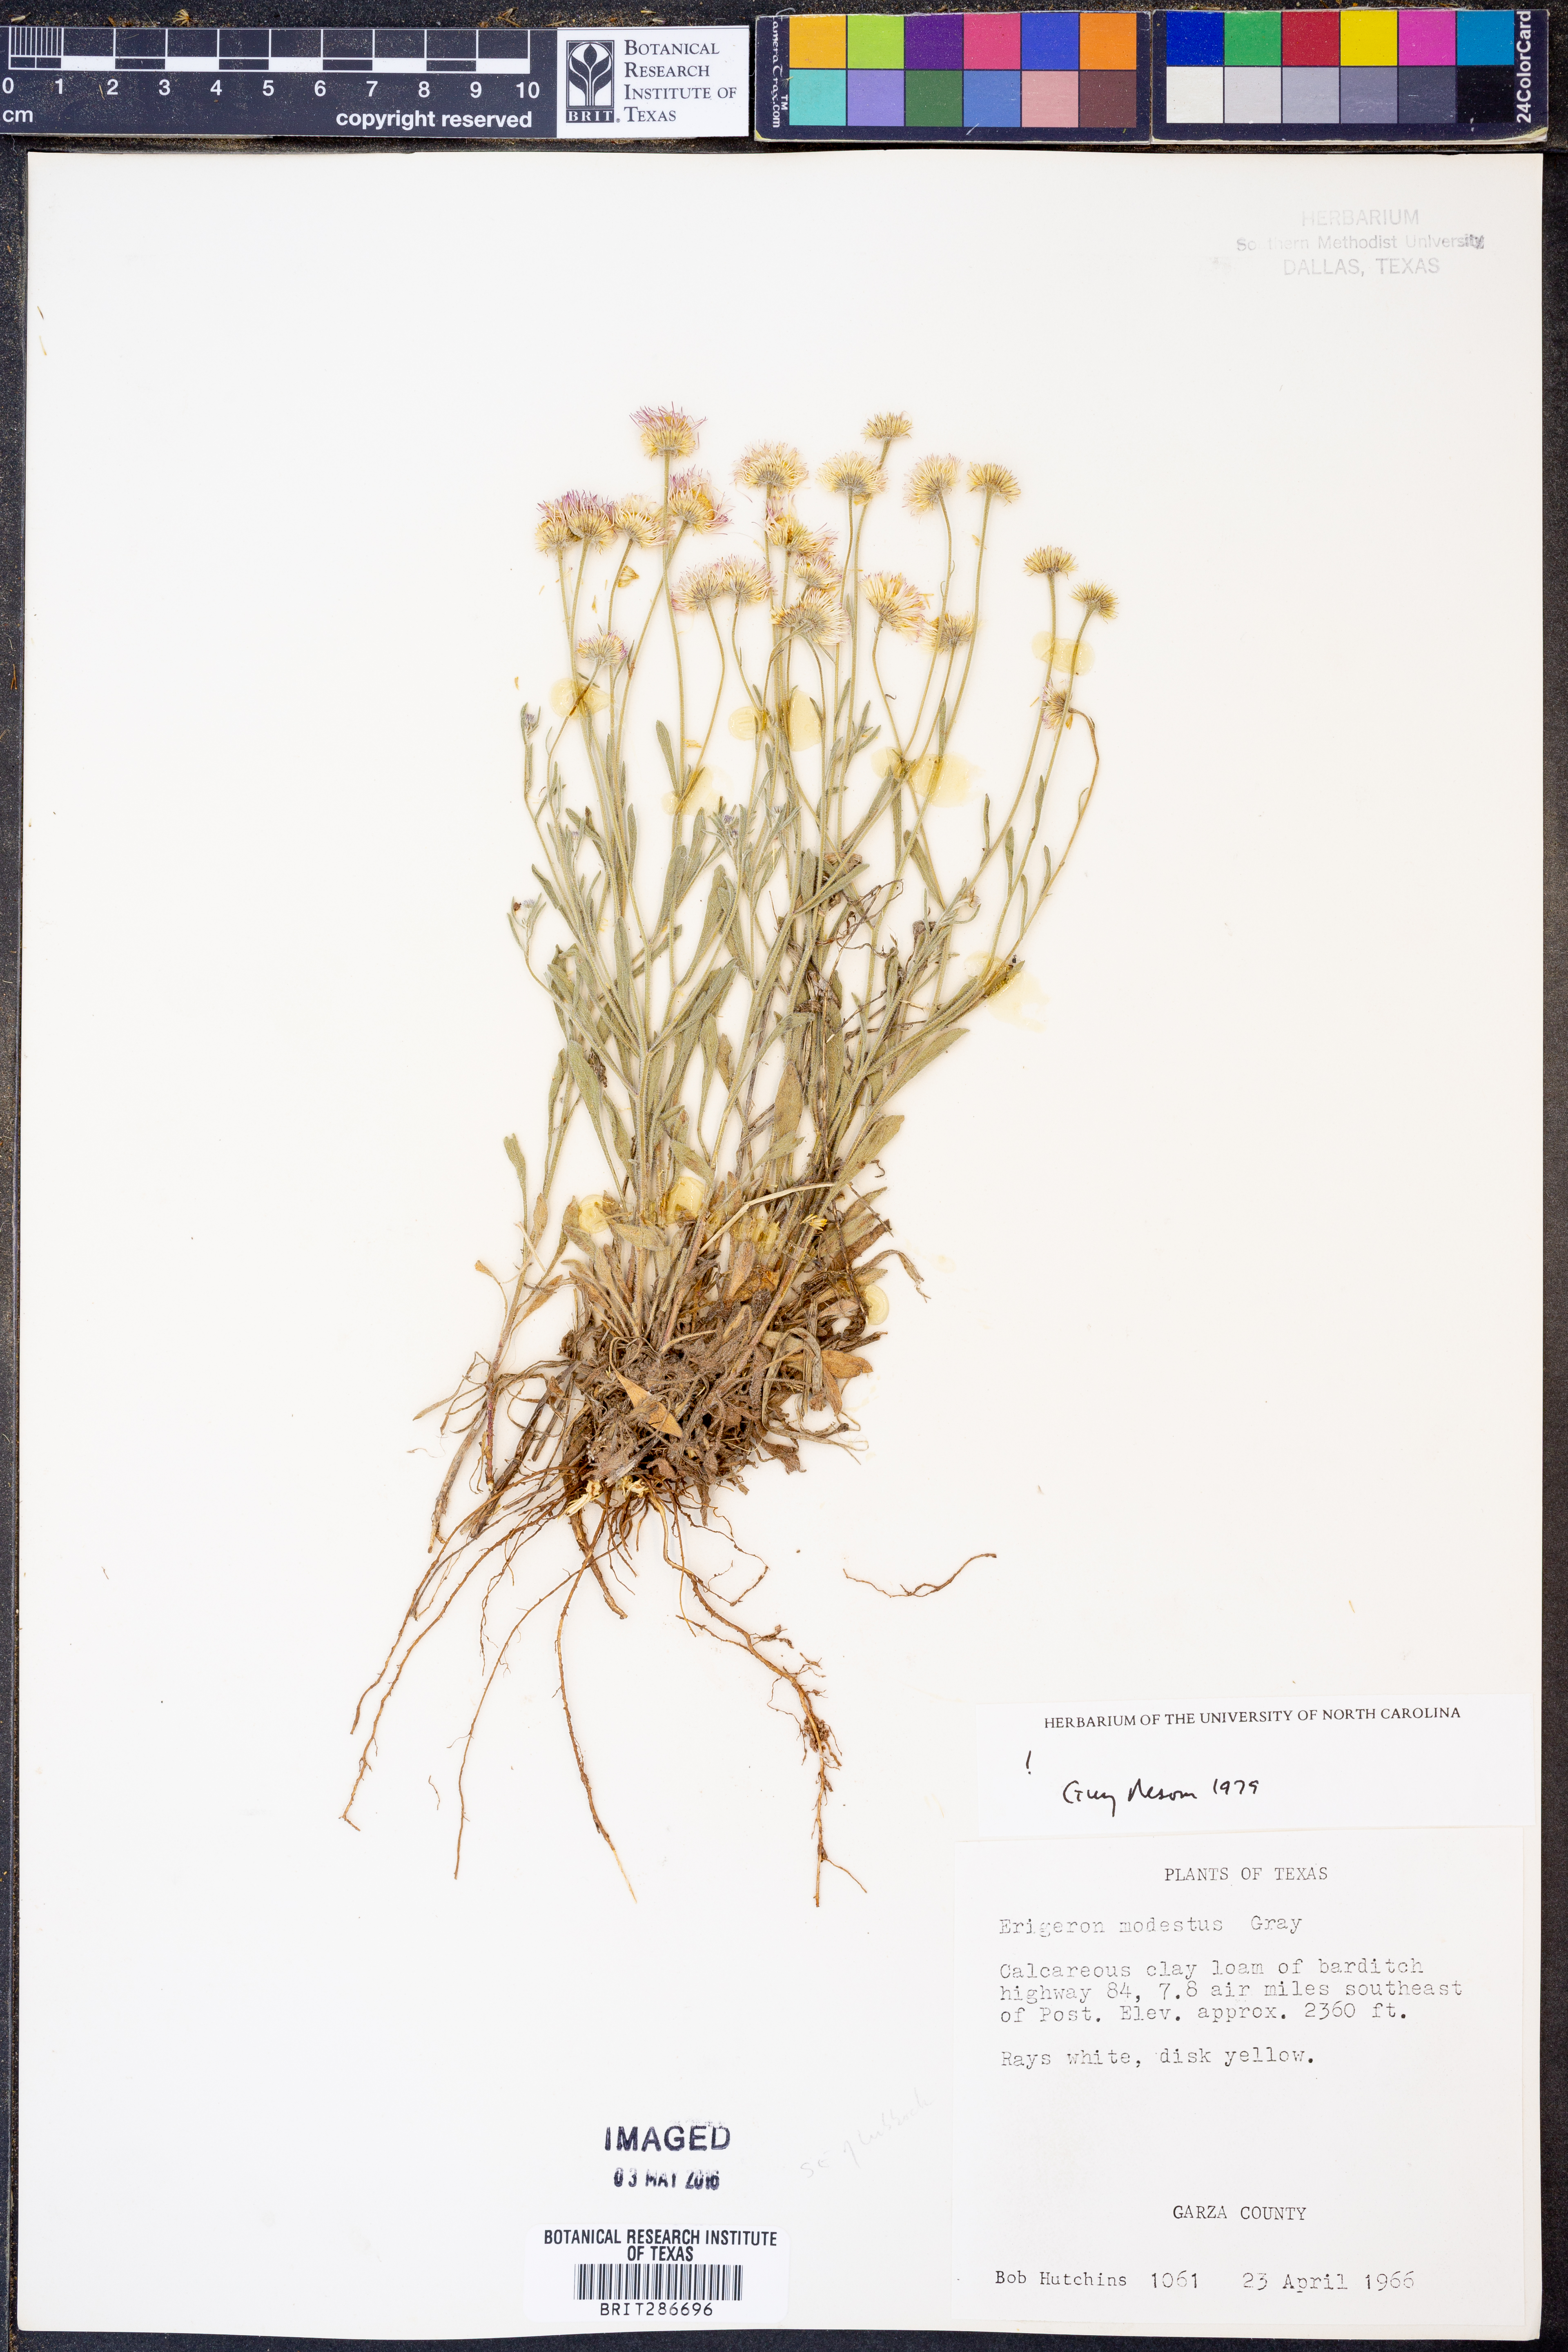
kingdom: Plantae
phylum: Tracheophyta
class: Magnoliopsida
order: Asterales
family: Asteraceae
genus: Erigeron
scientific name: Erigeron modestus
